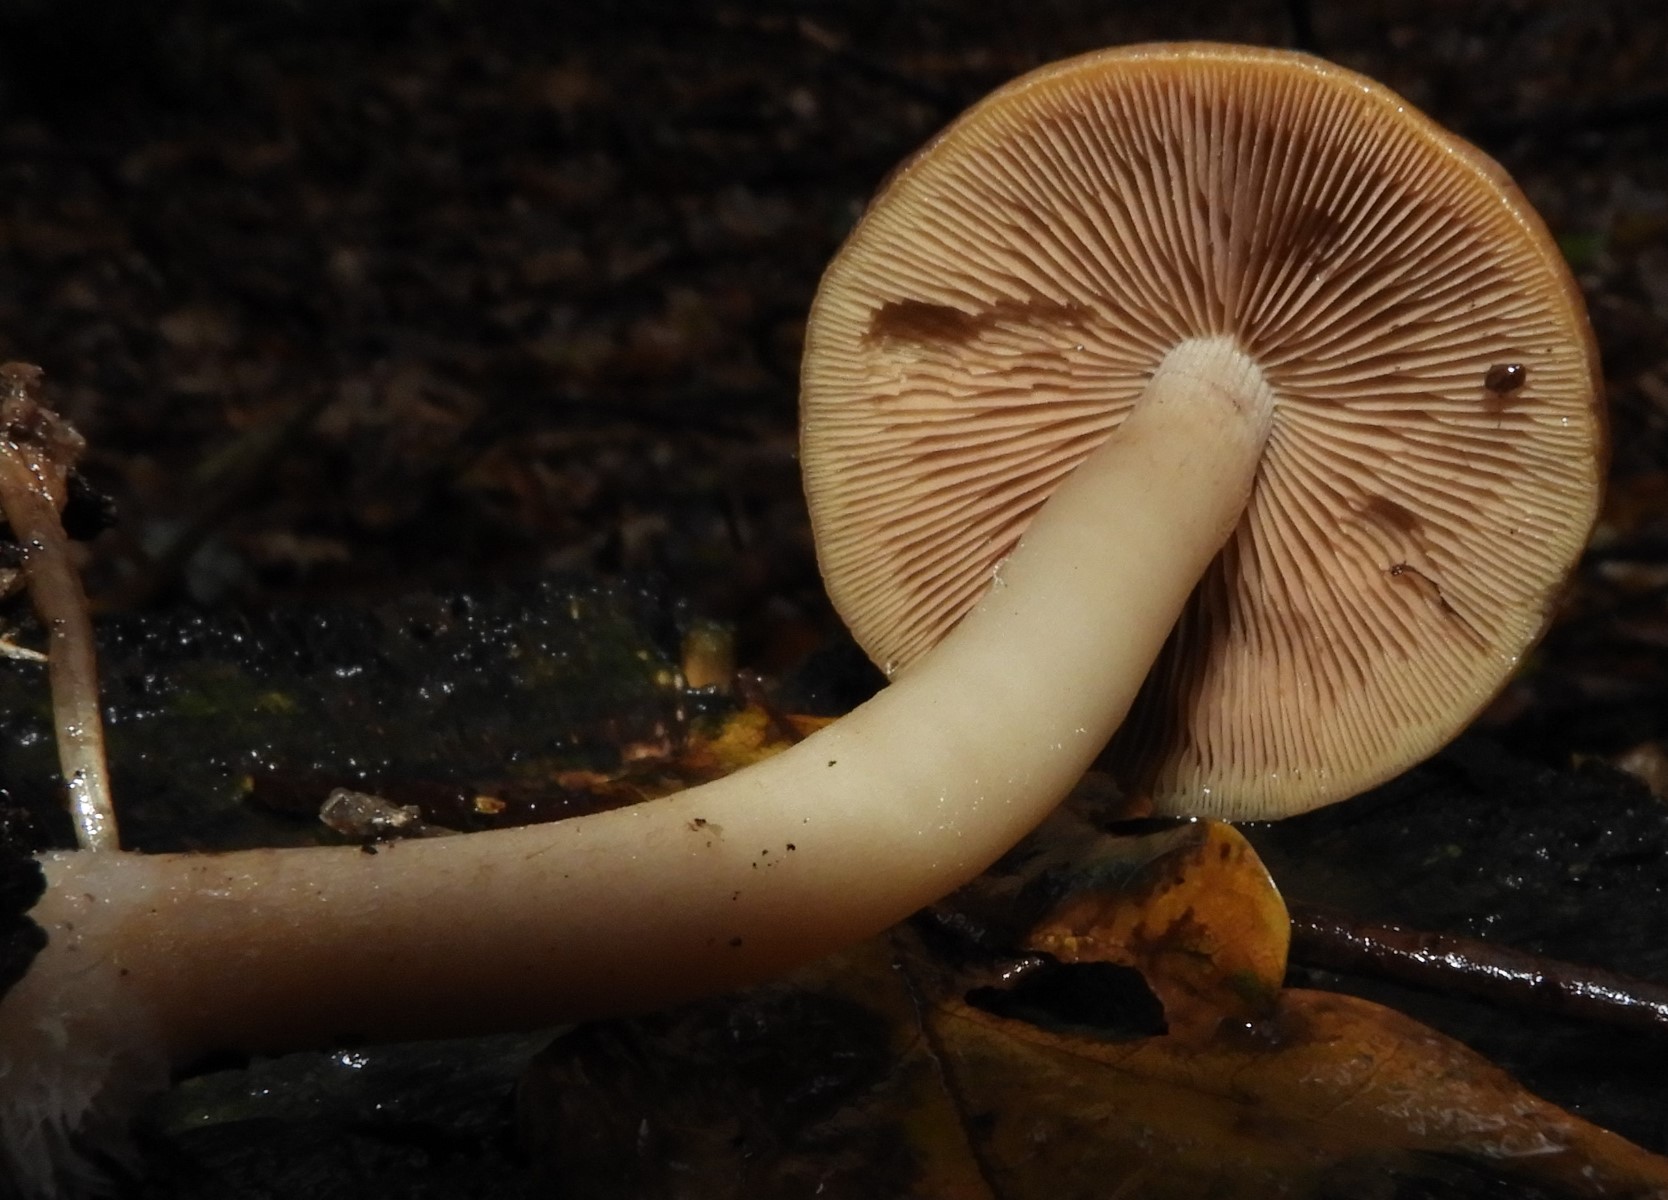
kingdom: Fungi
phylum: Basidiomycota
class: Agaricomycetes
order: Agaricales
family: Psathyrellaceae
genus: Psathyrella
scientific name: Psathyrella piluliformis
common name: lysstokket mørkhat
